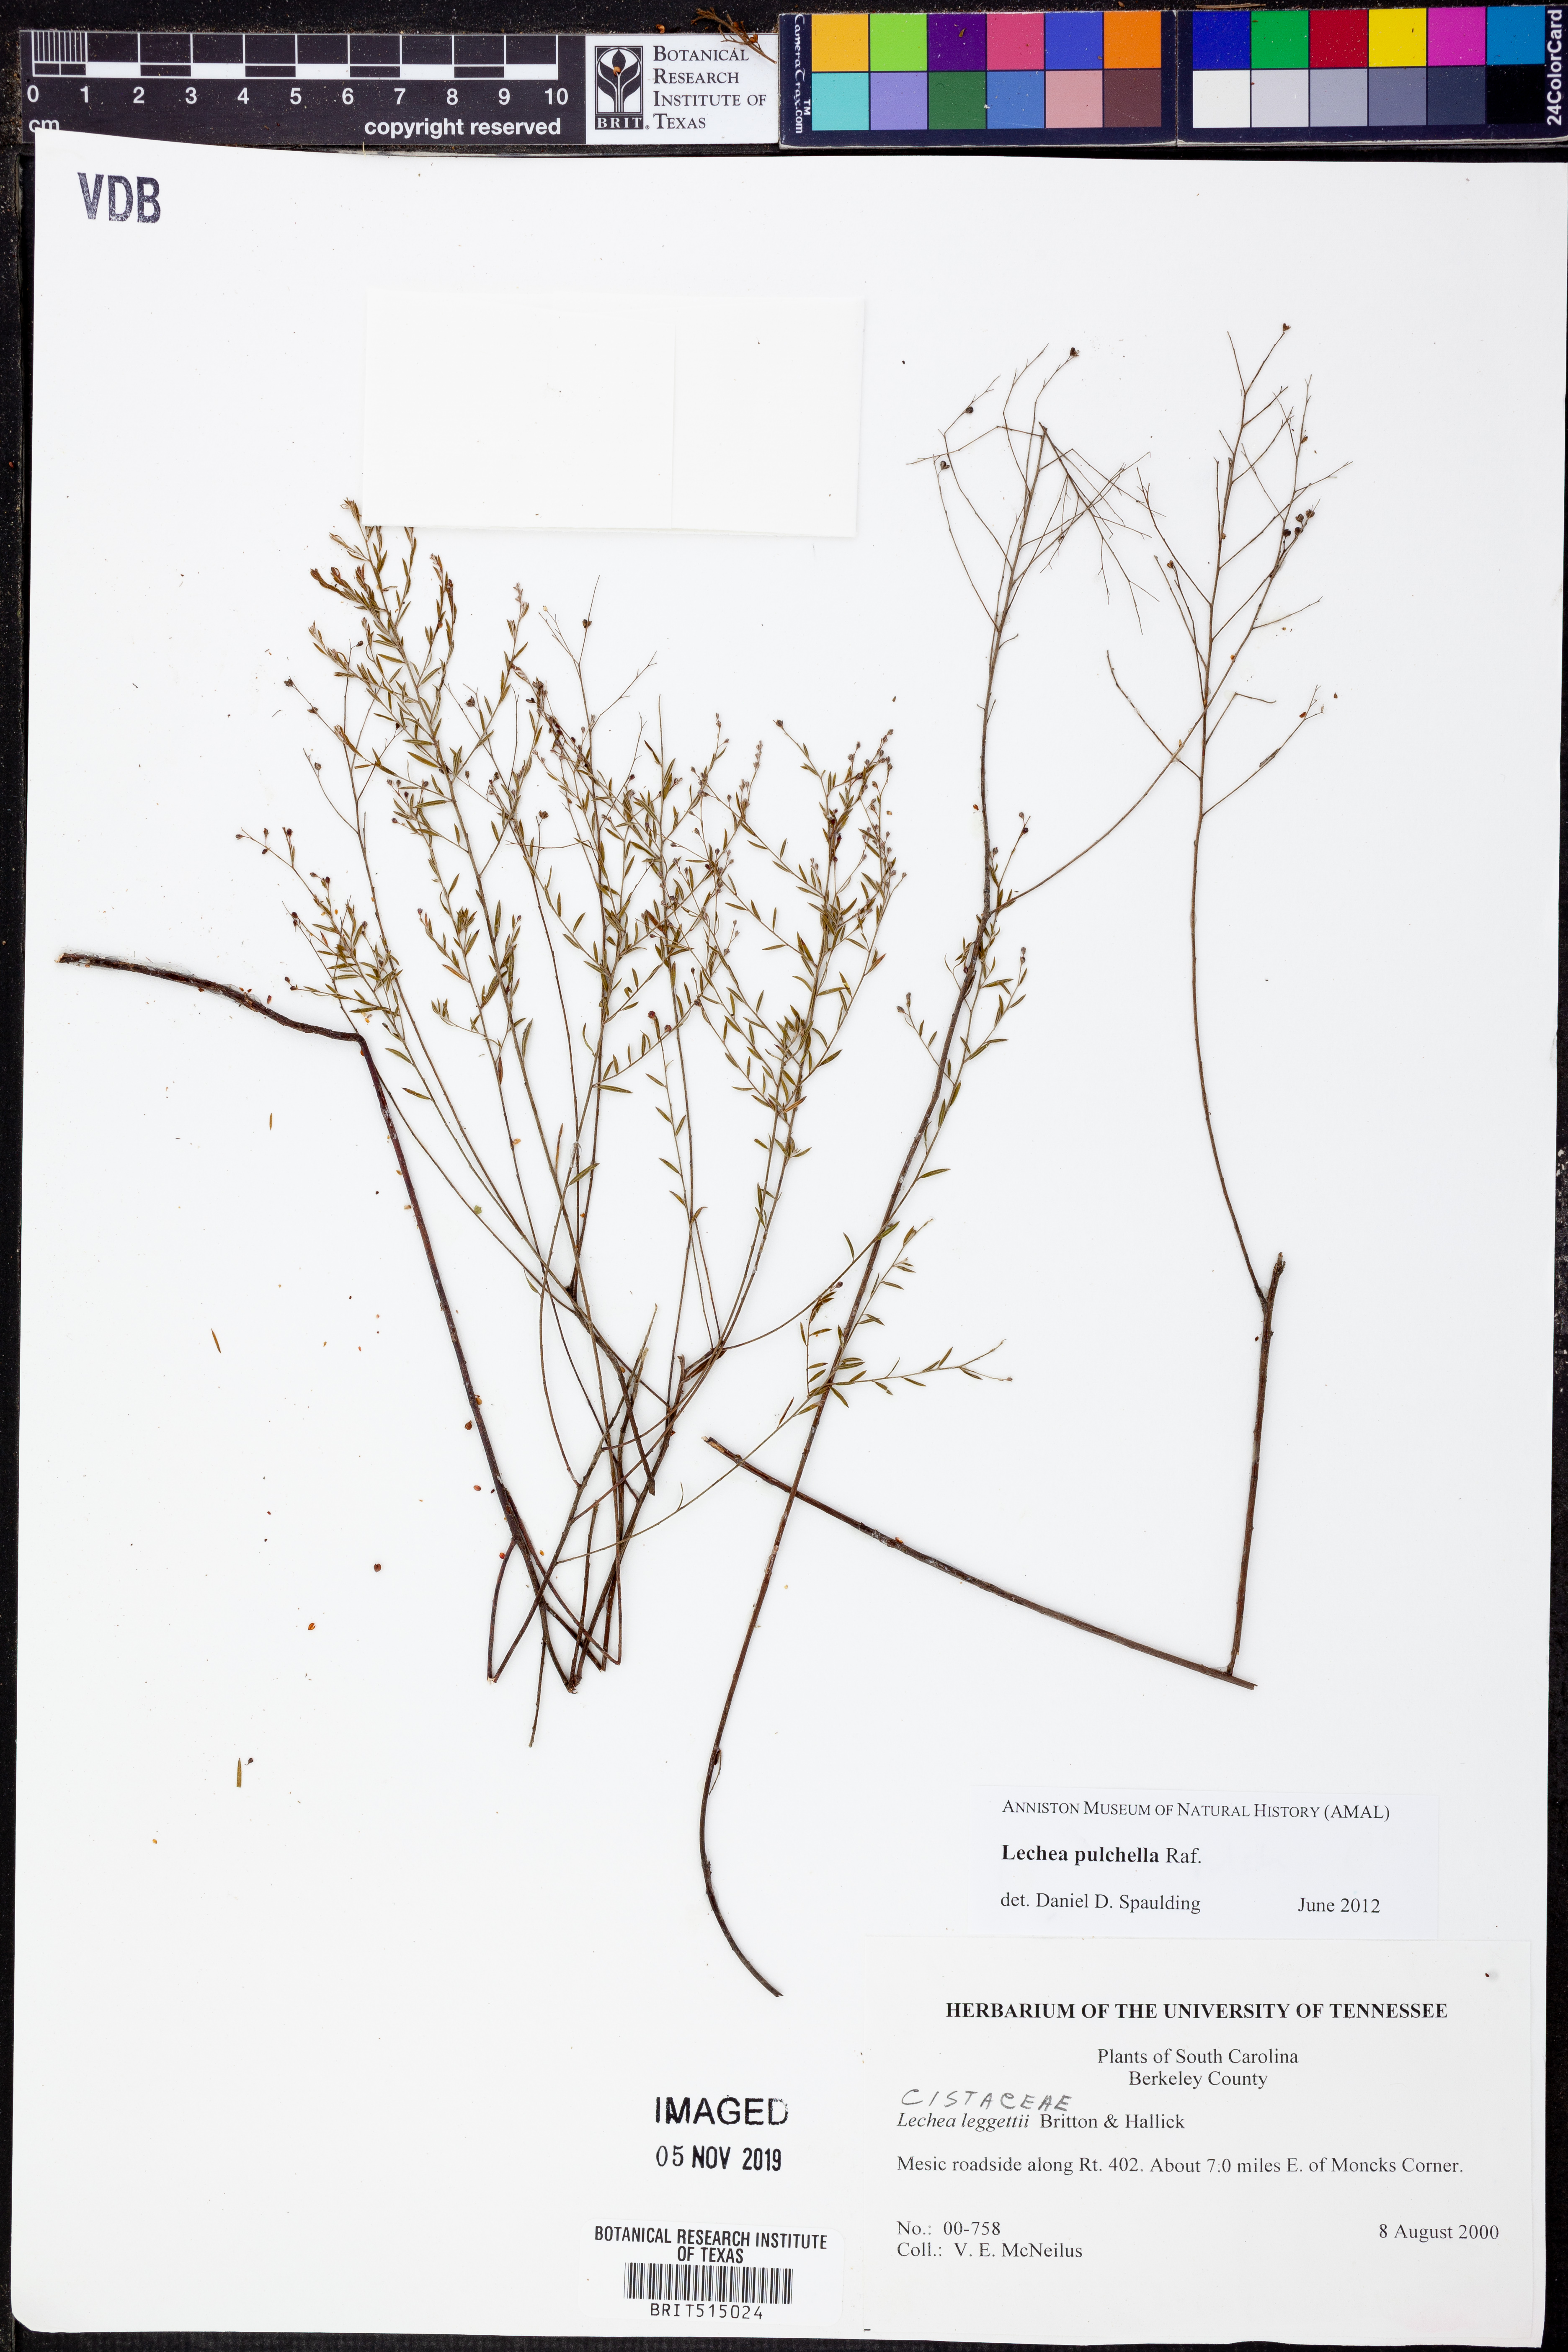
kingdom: Plantae
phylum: Tracheophyta
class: Magnoliopsida
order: Malvales
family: Cistaceae
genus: Lechea
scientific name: Lechea pulchella
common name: Leggett's pinweed
